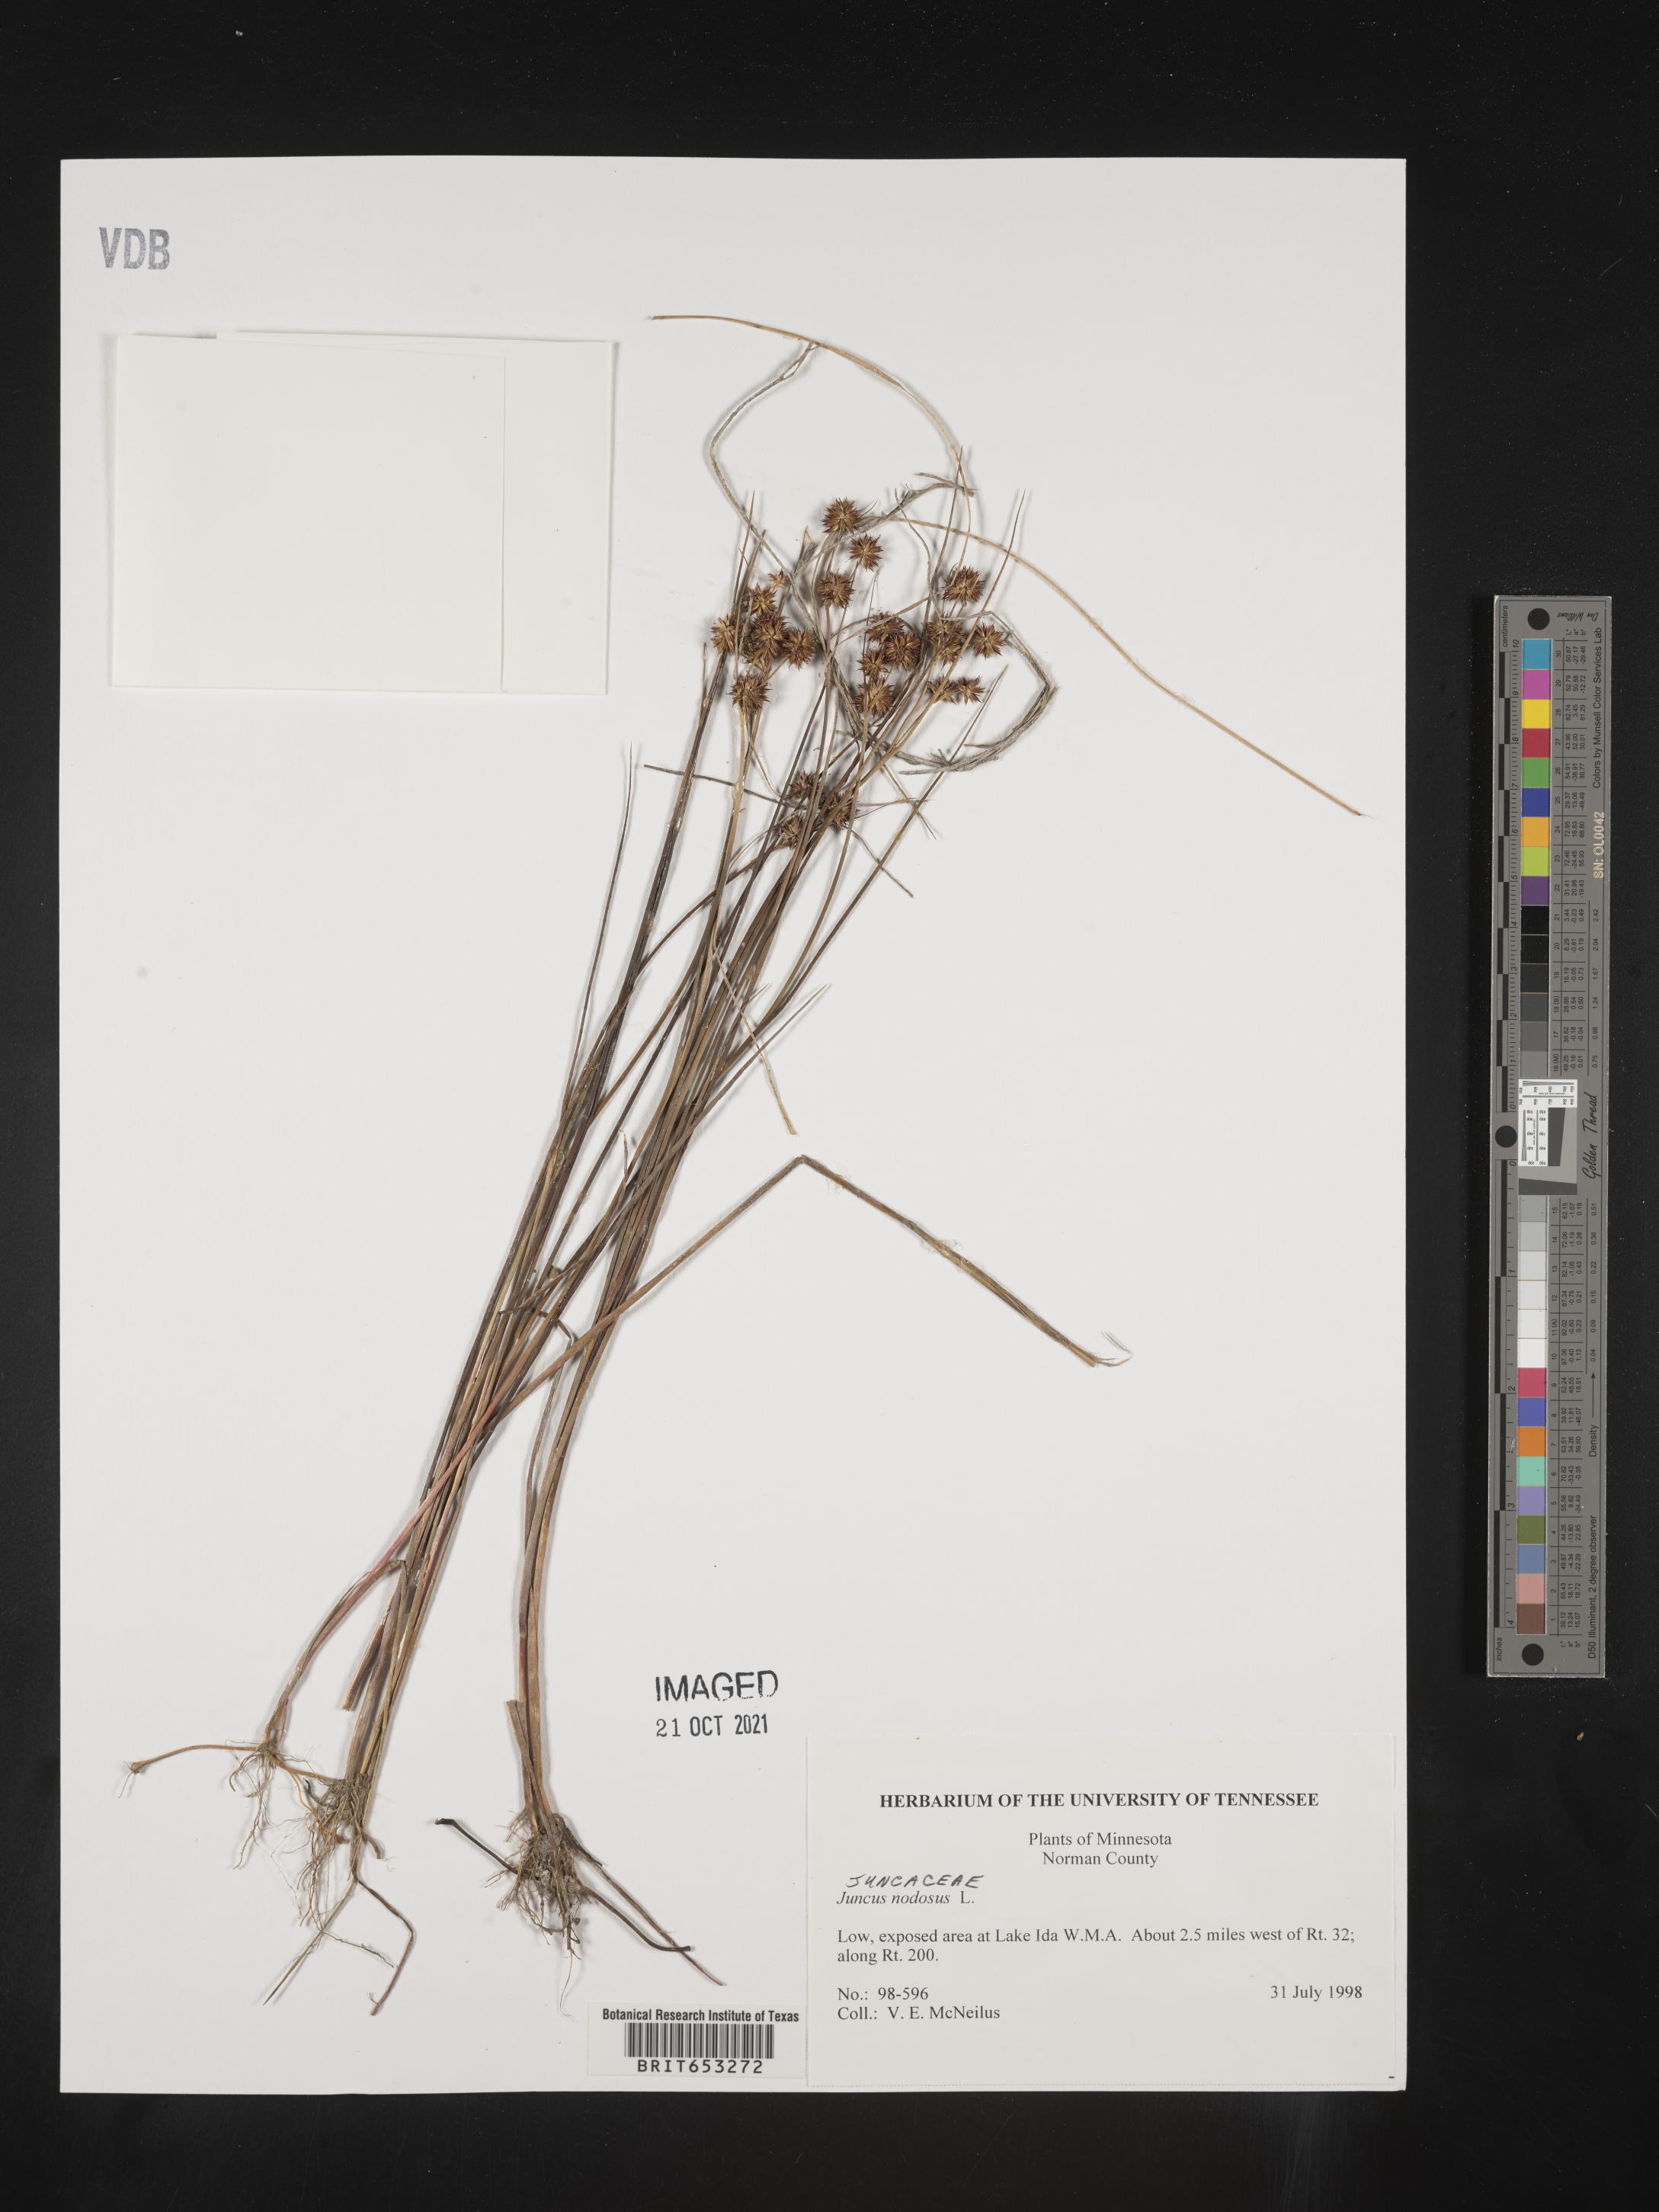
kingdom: Plantae
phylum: Tracheophyta
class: Liliopsida
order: Poales
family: Juncaceae
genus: Juncus
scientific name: Juncus nodosus
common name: Knotted rush
